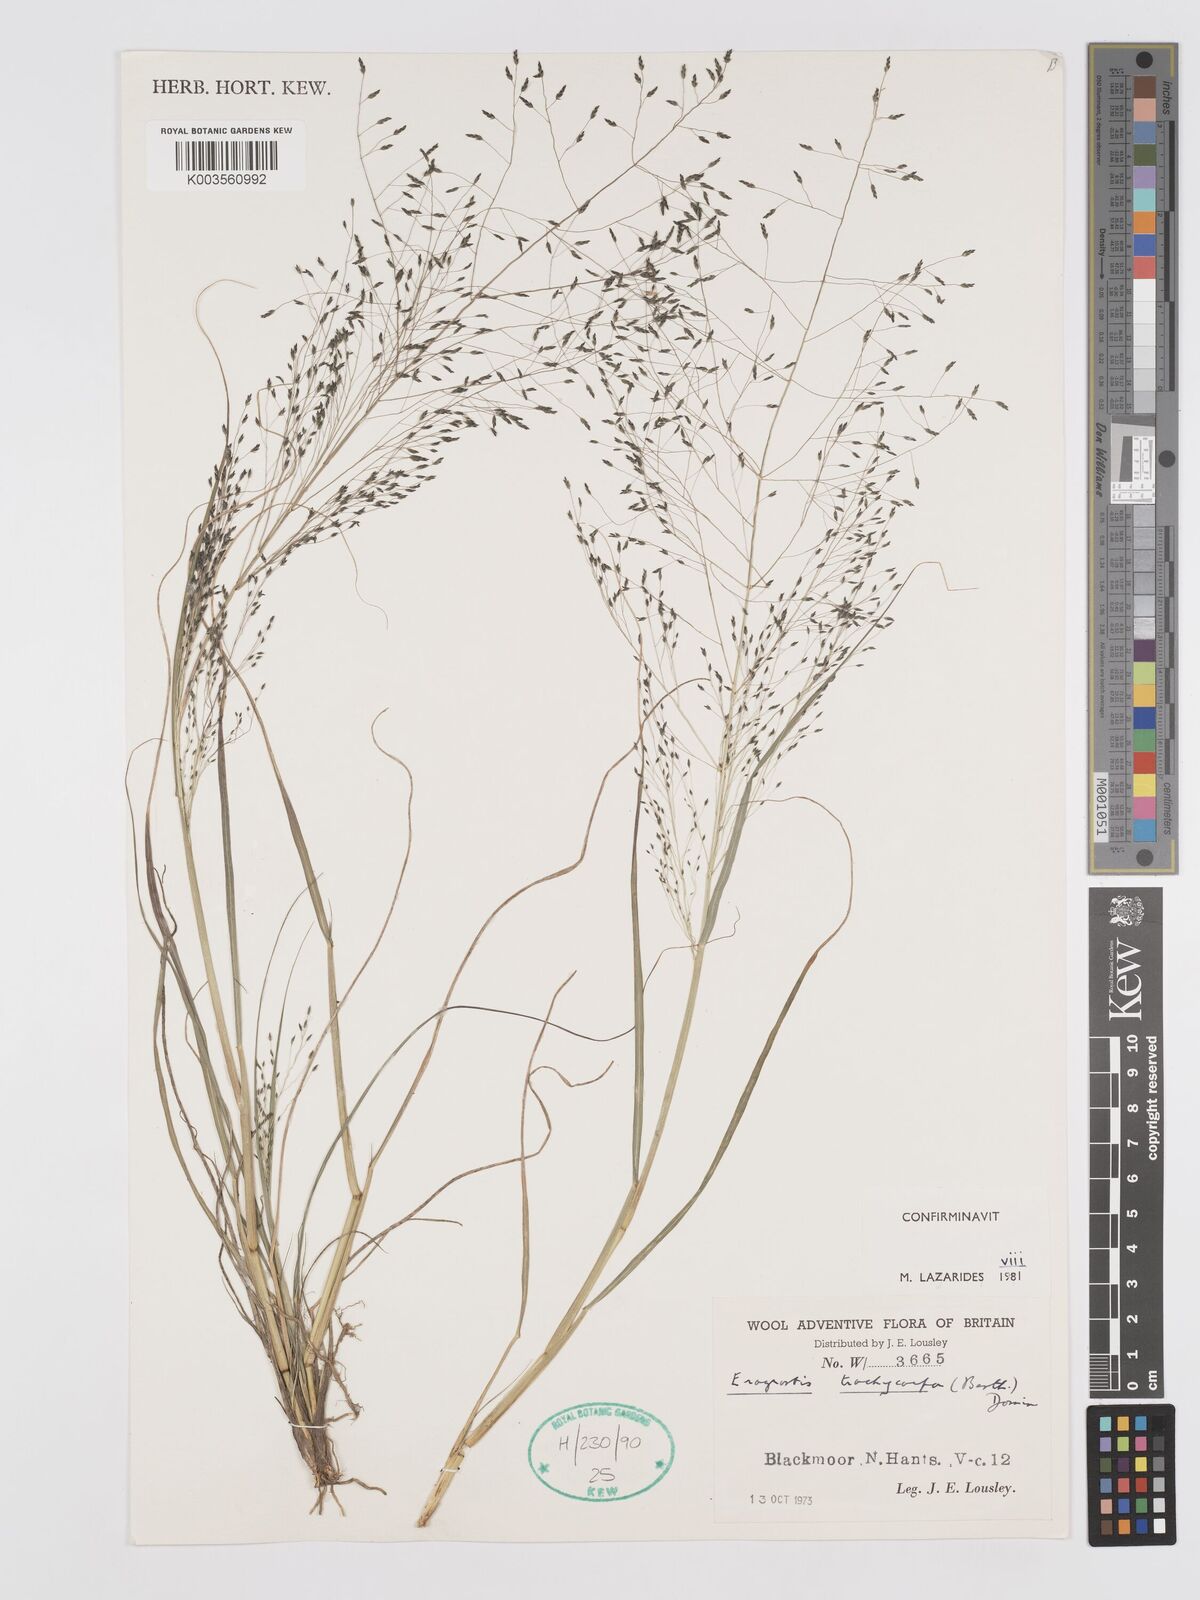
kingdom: Plantae
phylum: Tracheophyta
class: Liliopsida
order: Poales
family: Poaceae
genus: Eragrostis
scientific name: Eragrostis trachycarpa
